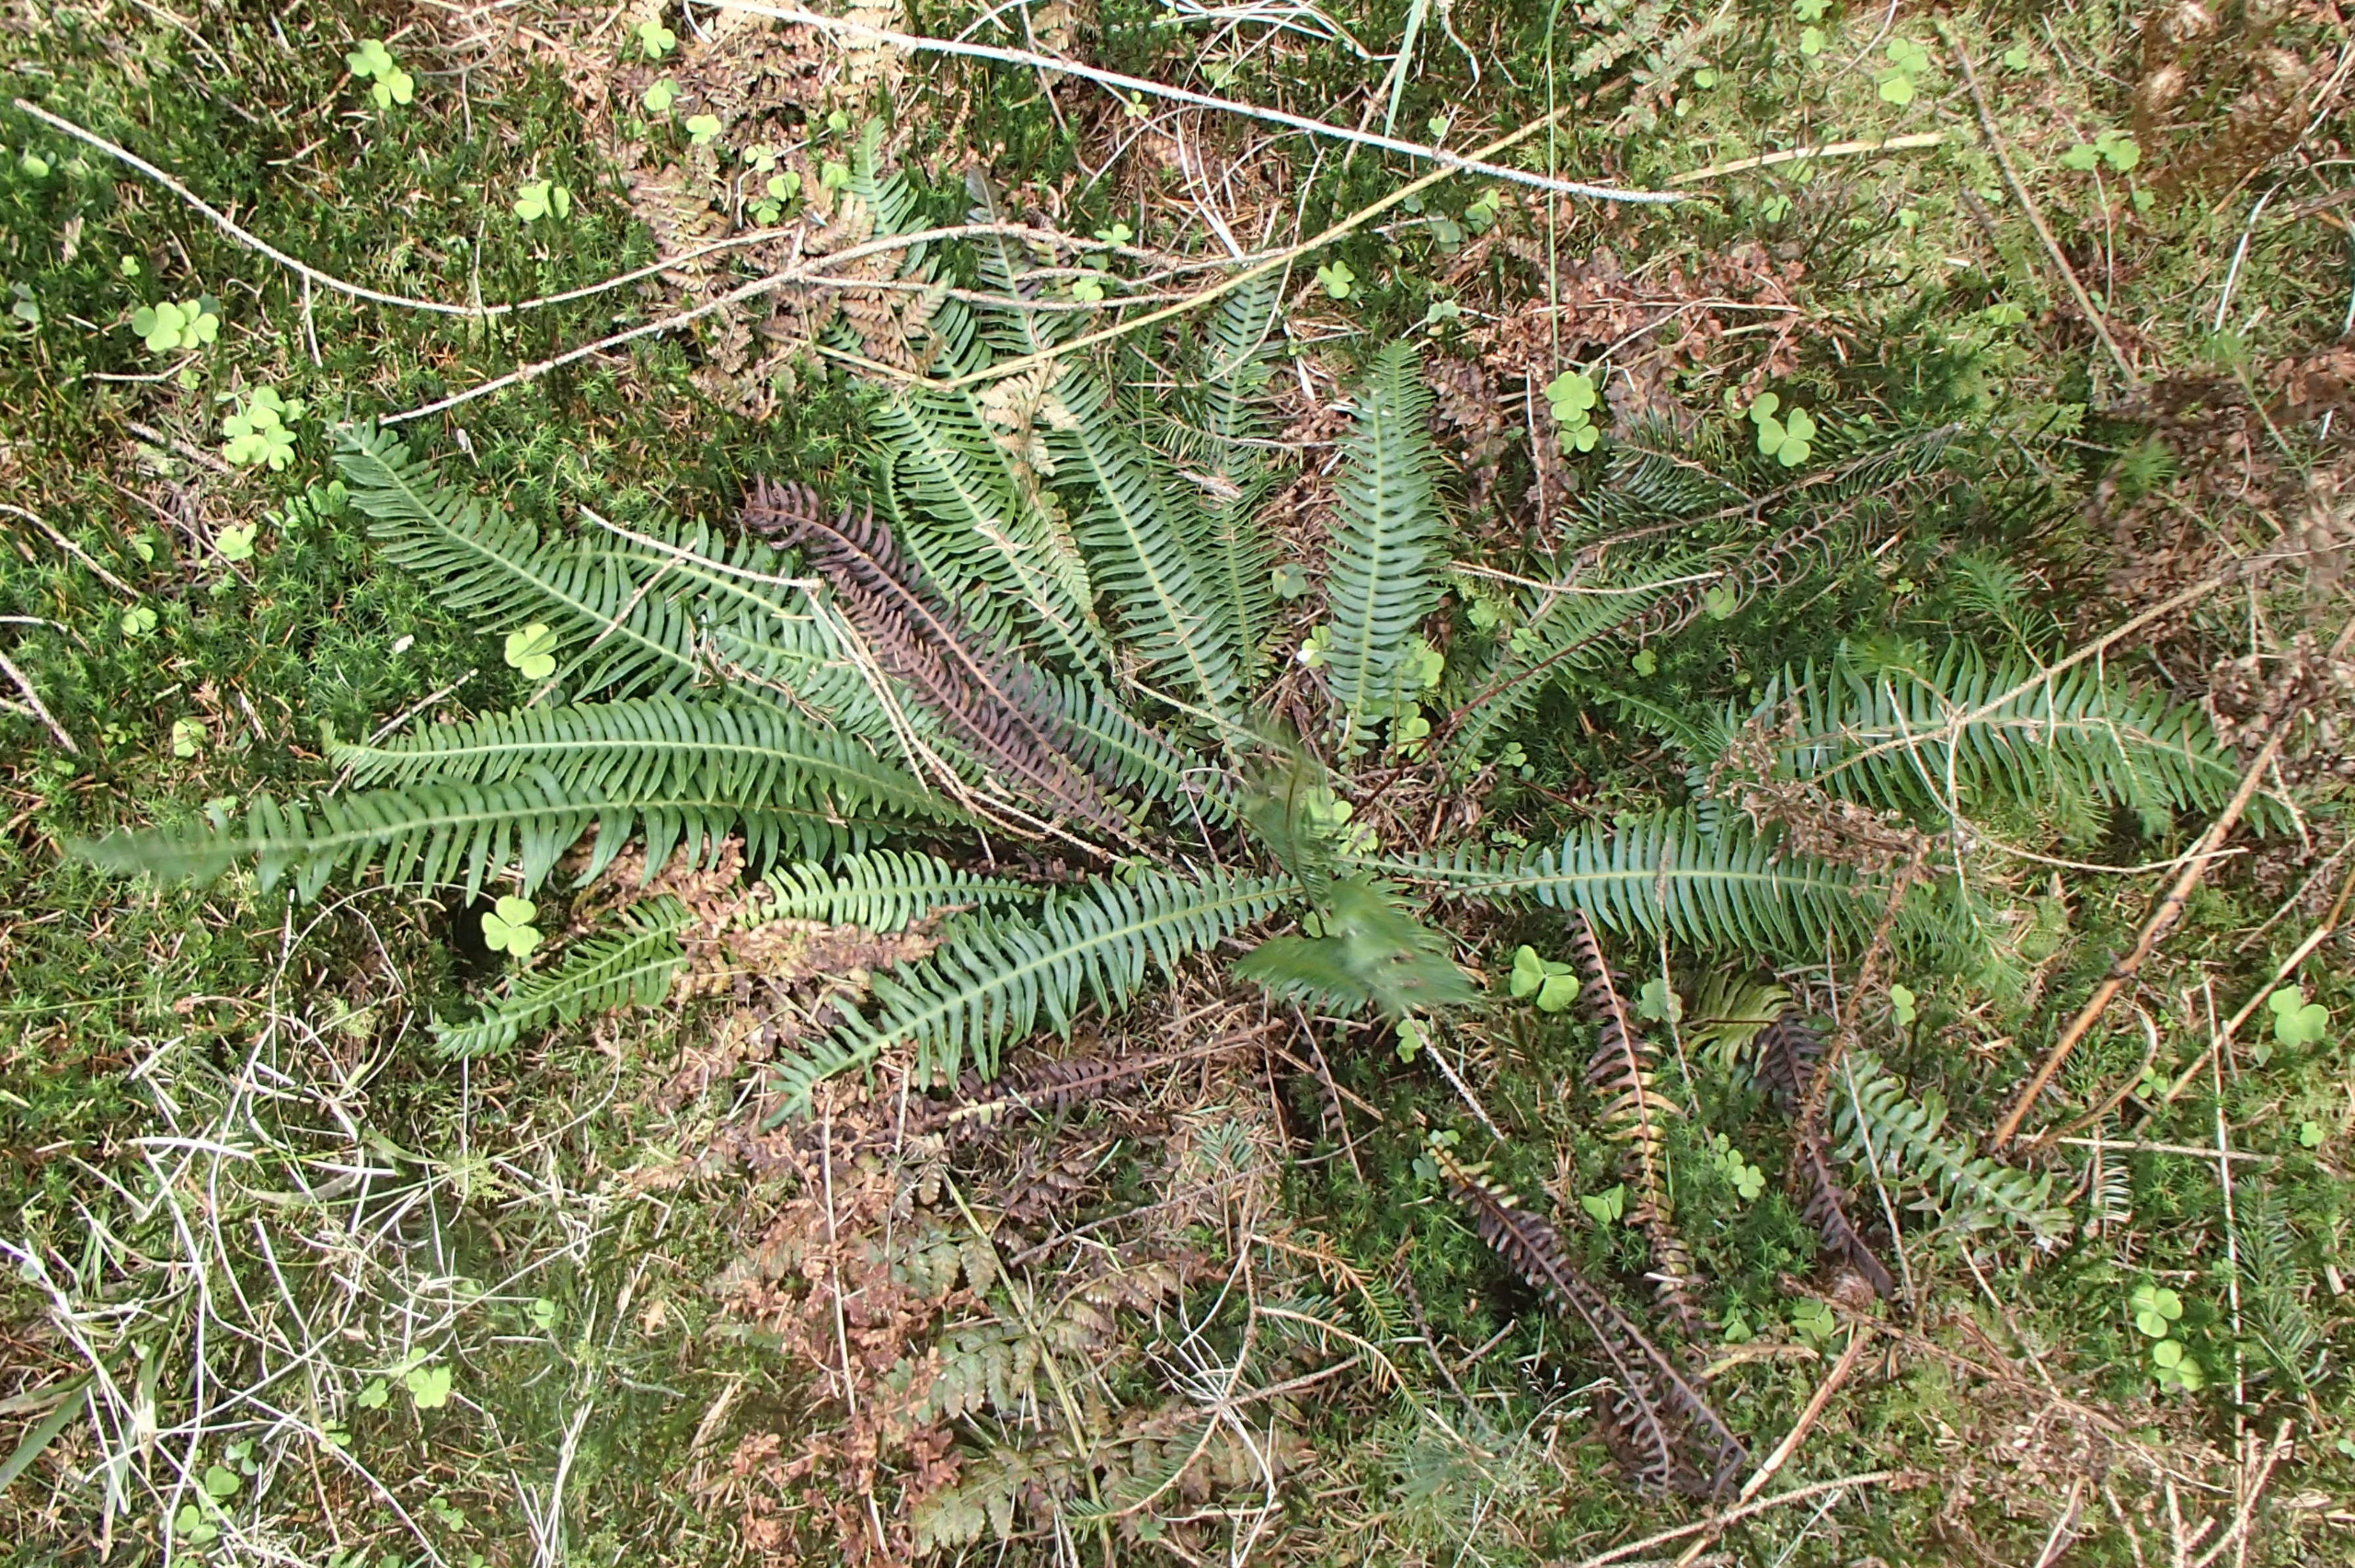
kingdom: Plantae
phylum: Tracheophyta
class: Polypodiopsida
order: Polypodiales
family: Blechnaceae
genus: Struthiopteris
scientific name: Struthiopteris spicant
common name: Kambregne
